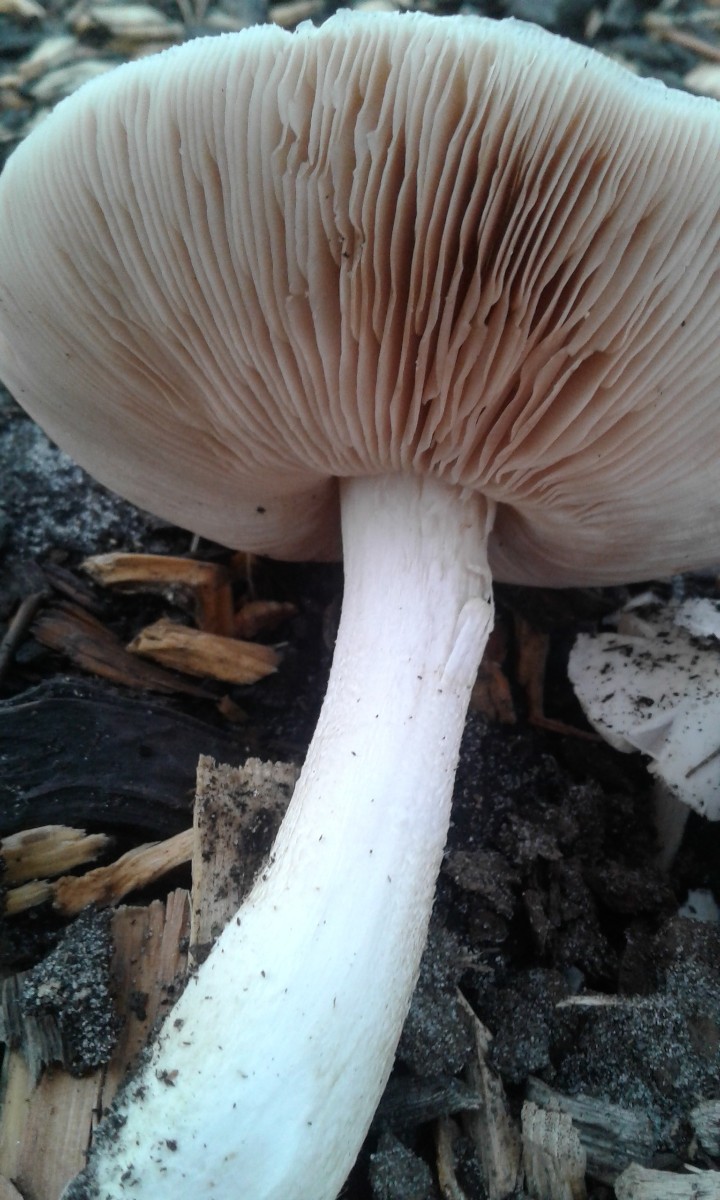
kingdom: Fungi
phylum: Basidiomycota
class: Agaricomycetes
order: Agaricales
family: Pluteaceae
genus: Pluteus
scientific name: Pluteus petasatus
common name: savsmulds-skærmhat
